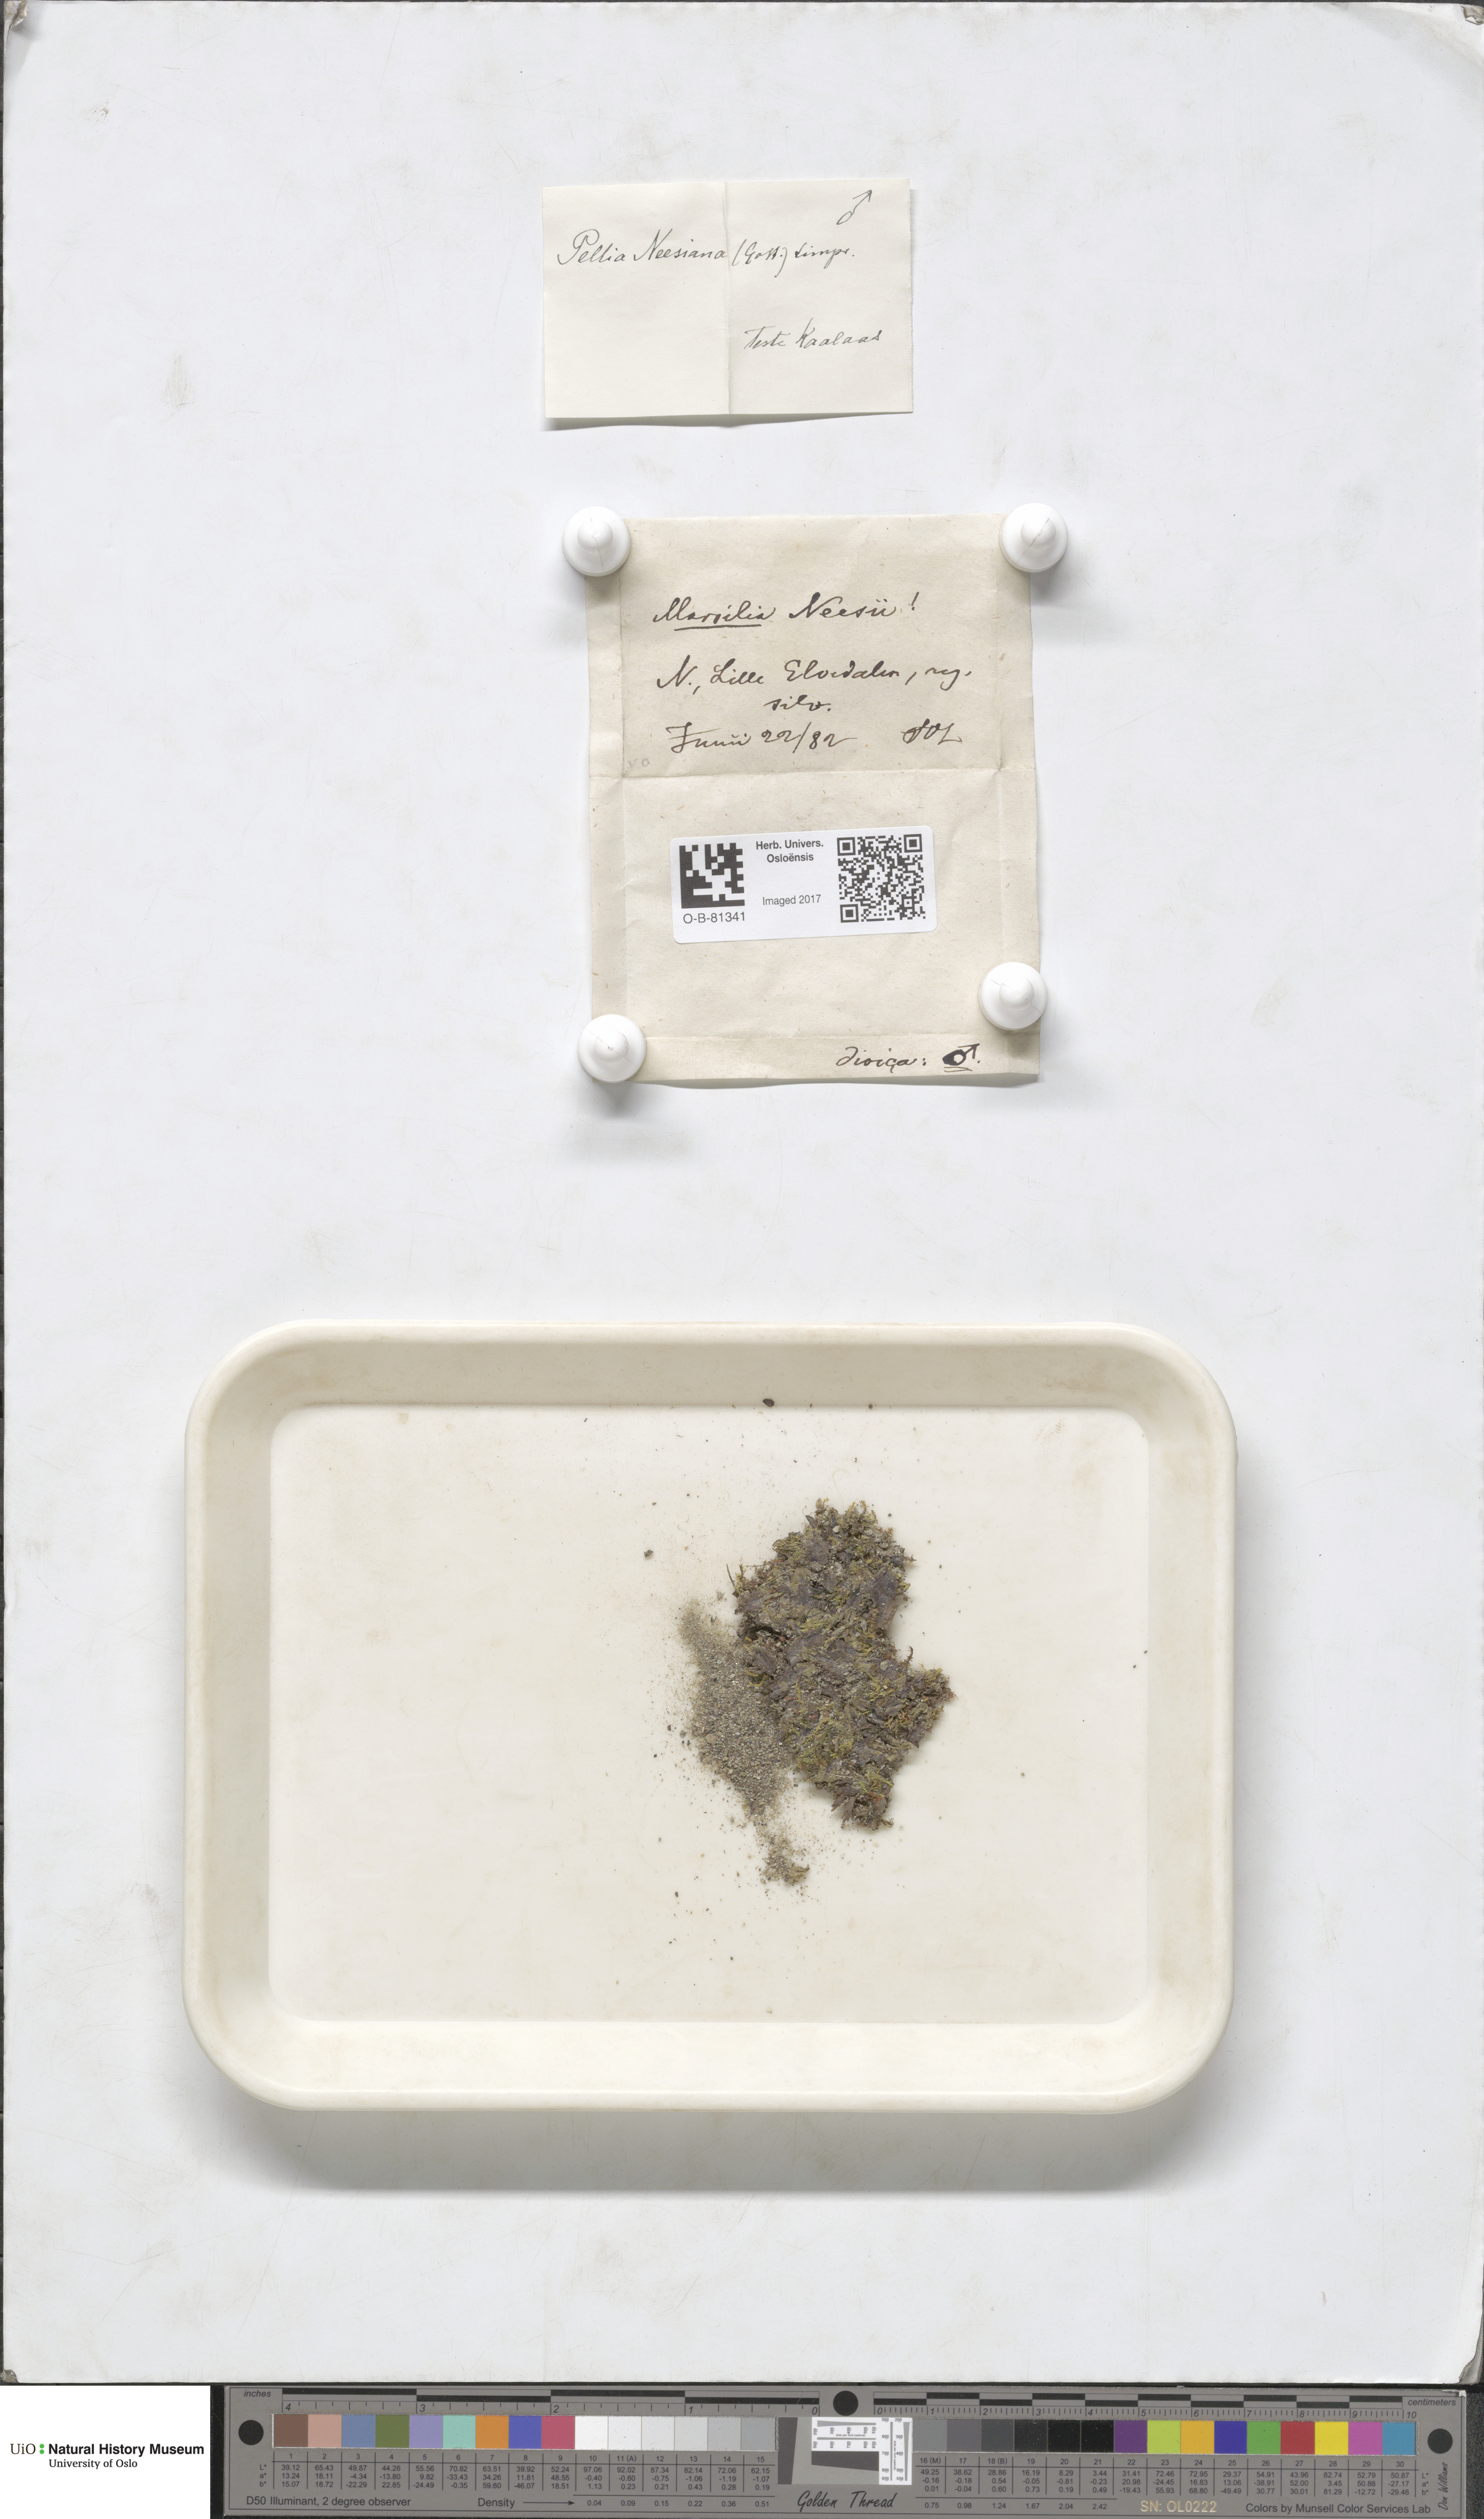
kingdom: Plantae
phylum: Marchantiophyta
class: Jungermanniopsida
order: Pelliales
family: Pelliaceae
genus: Pellia
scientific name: Pellia neesiana
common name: Nees  pellia
